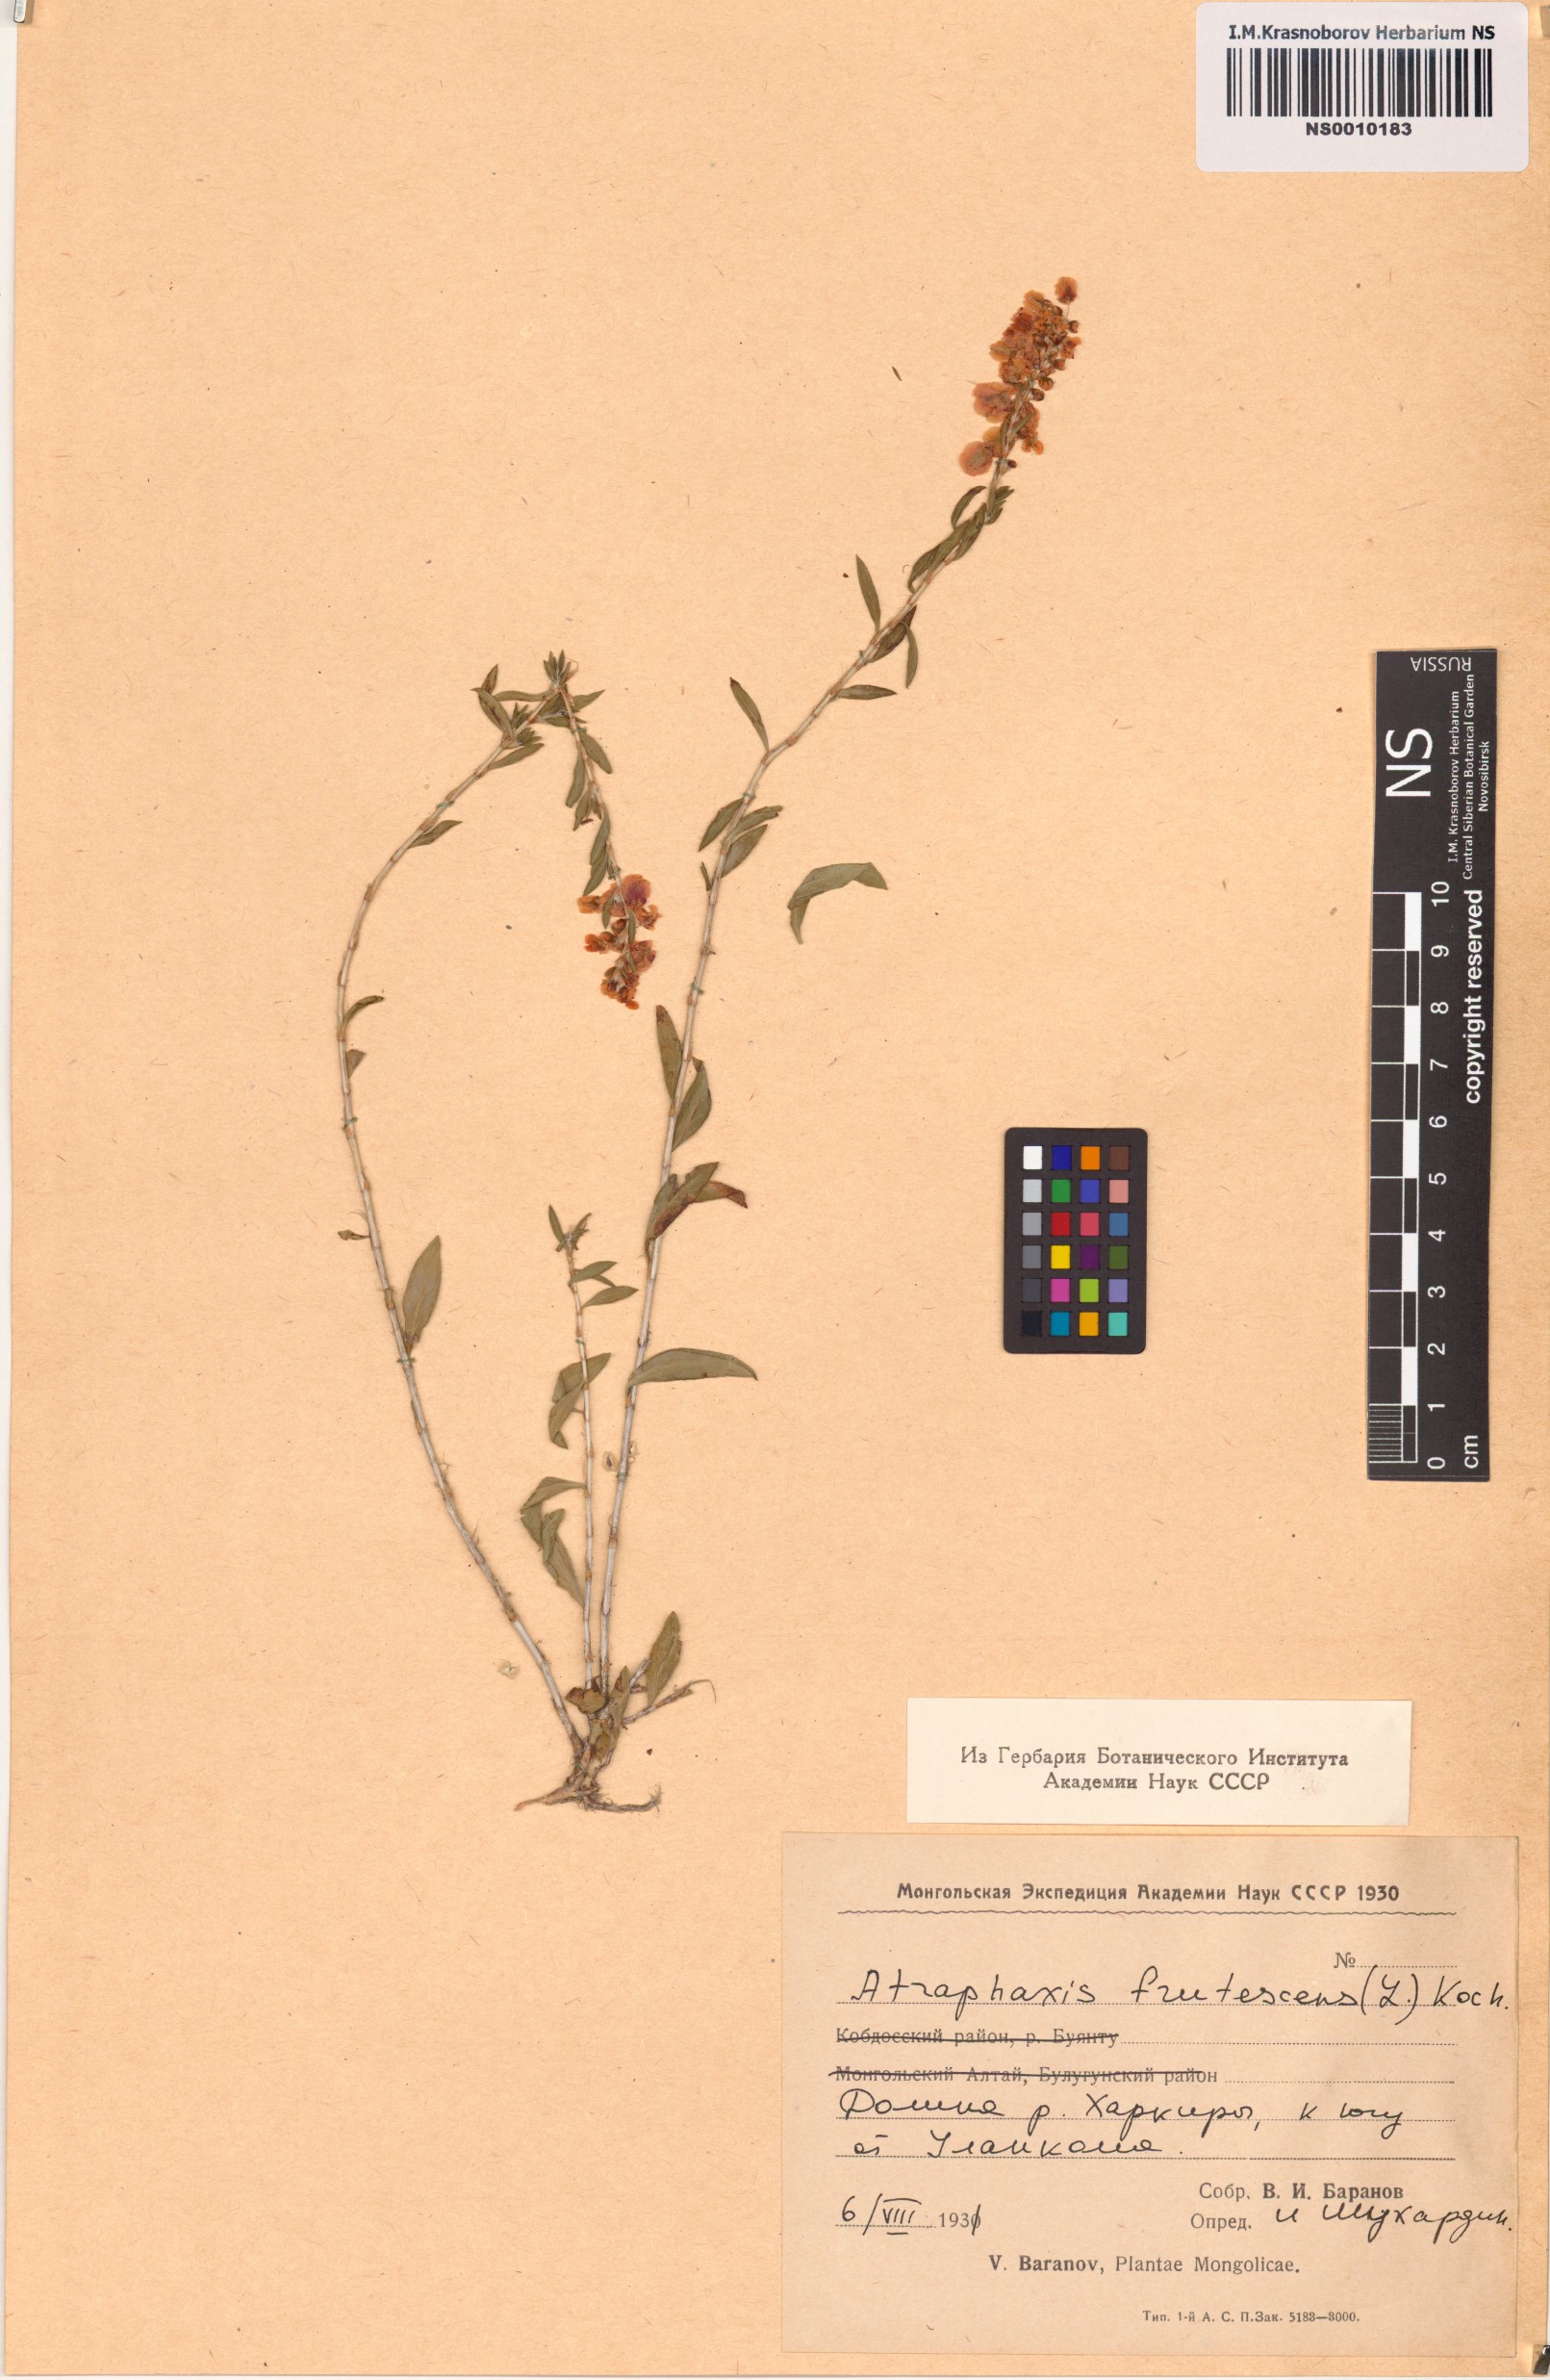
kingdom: Plantae
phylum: Tracheophyta
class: Magnoliopsida
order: Caryophyllales
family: Polygonaceae
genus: Atraphaxis
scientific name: Atraphaxis frutescens
